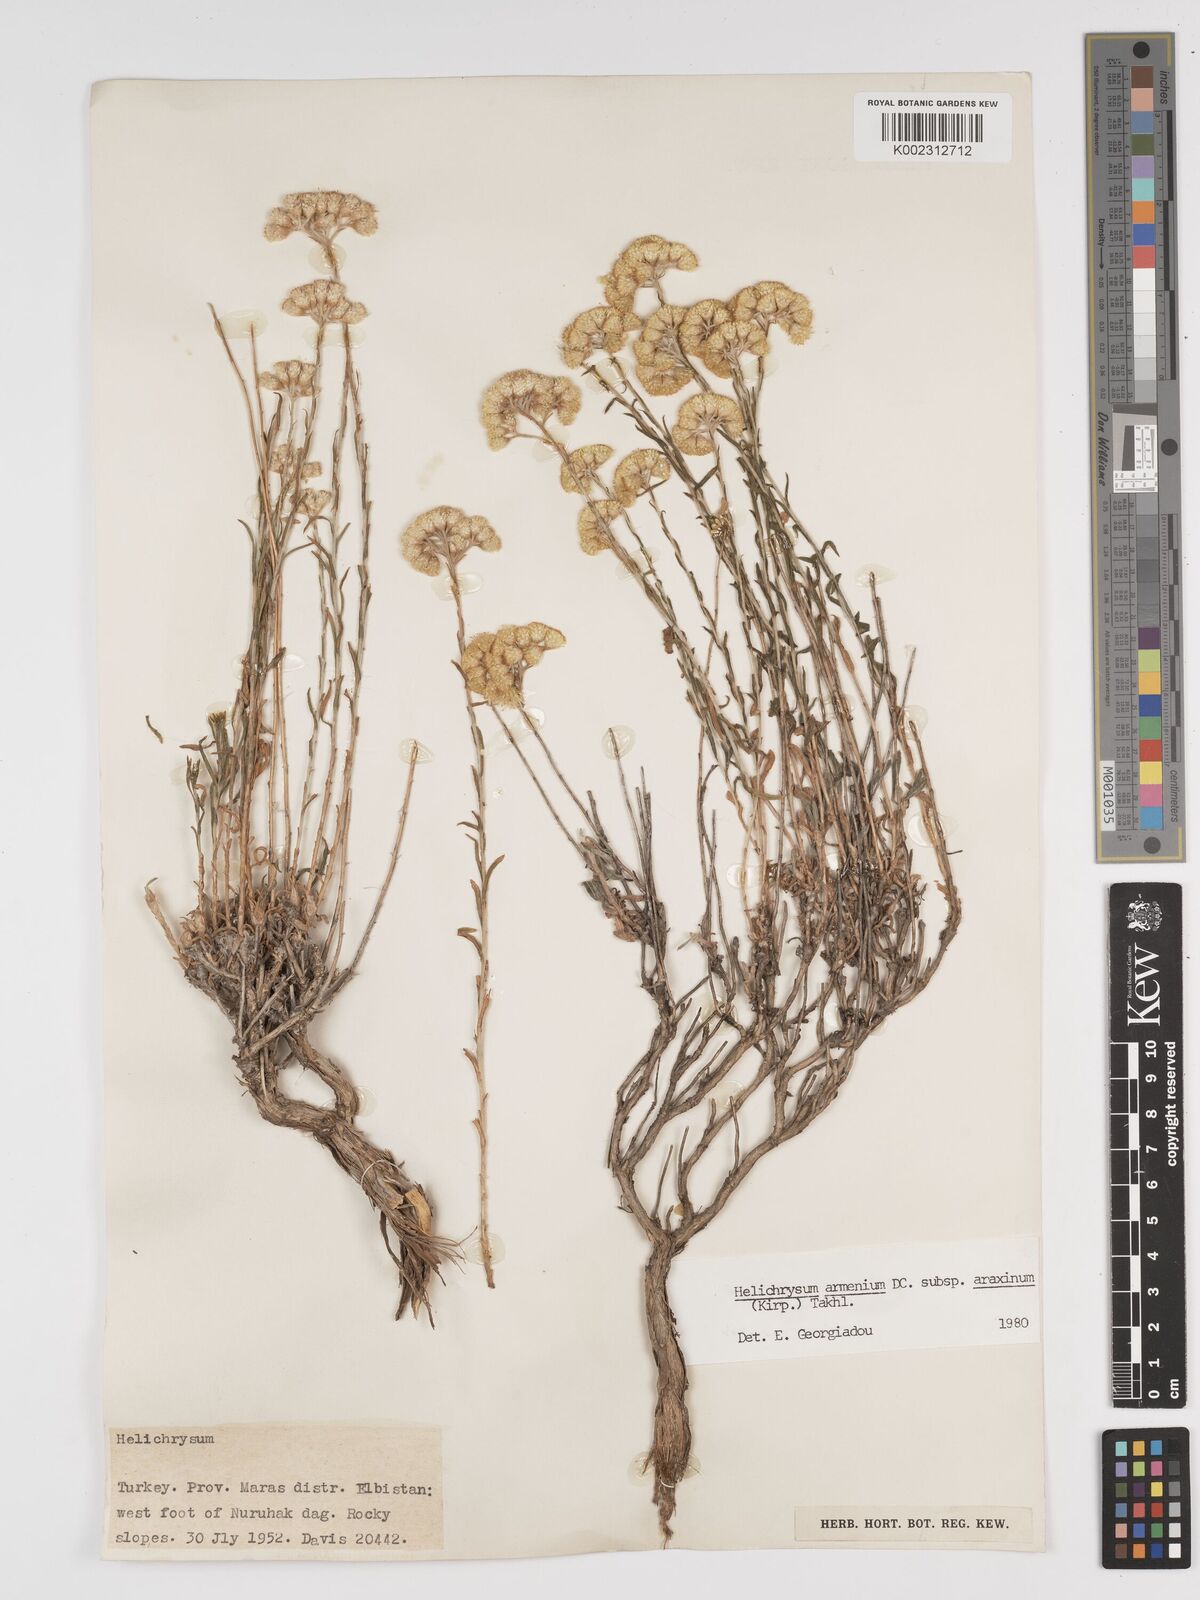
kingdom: Plantae
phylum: Tracheophyta
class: Magnoliopsida
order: Asterales
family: Asteraceae
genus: Helichrysum
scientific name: Helichrysum araxinum
